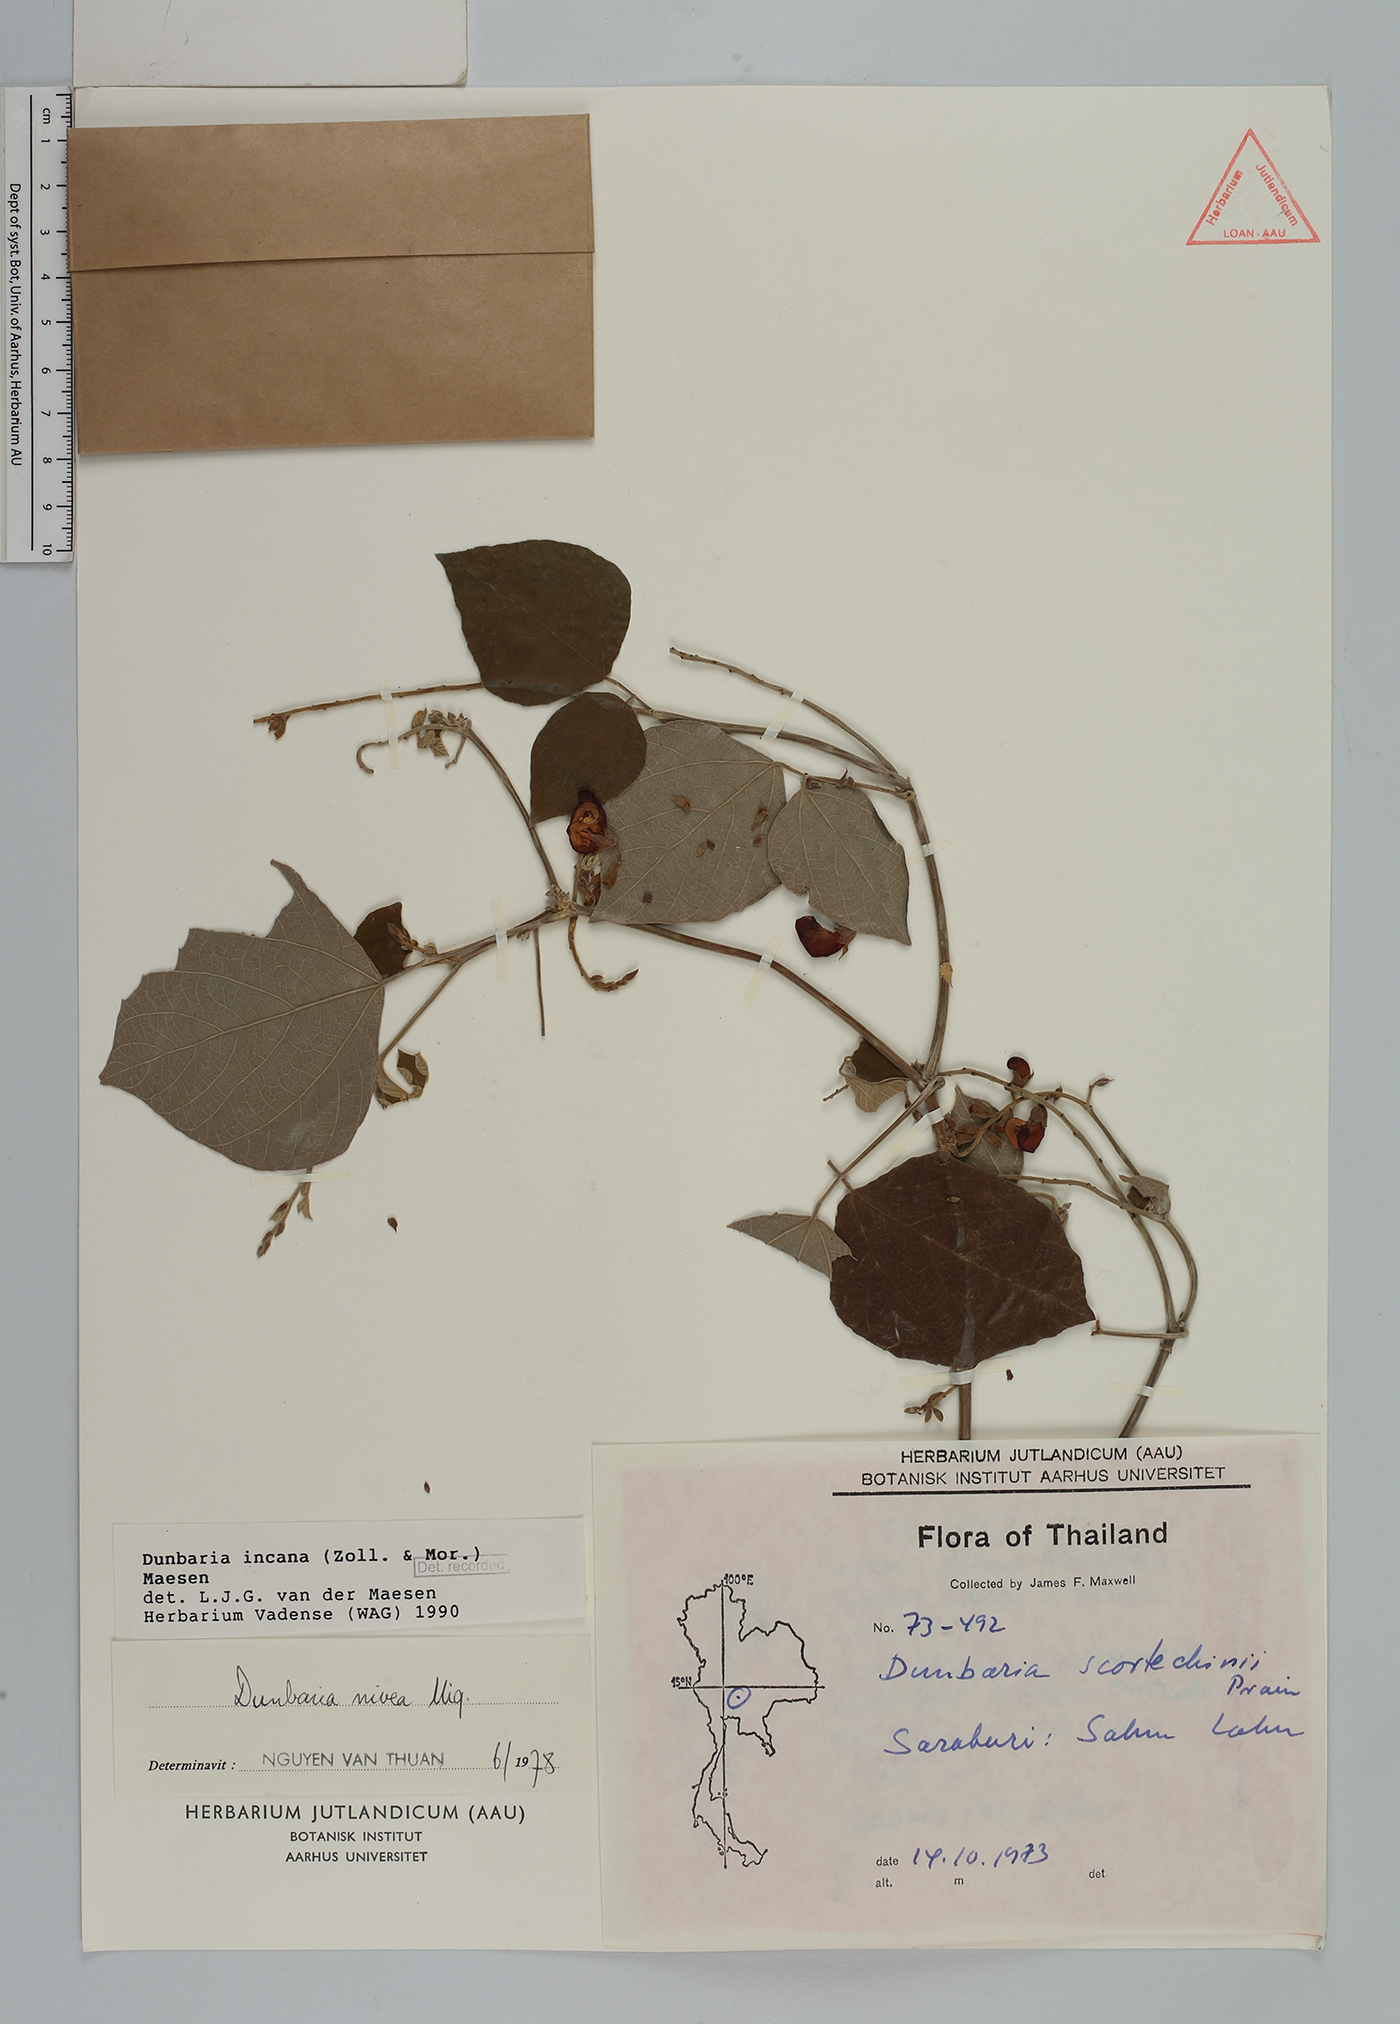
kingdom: Plantae
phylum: Tracheophyta
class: Magnoliopsida
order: Fabales
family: Fabaceae
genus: Dunbaria
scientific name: Dunbaria incana
